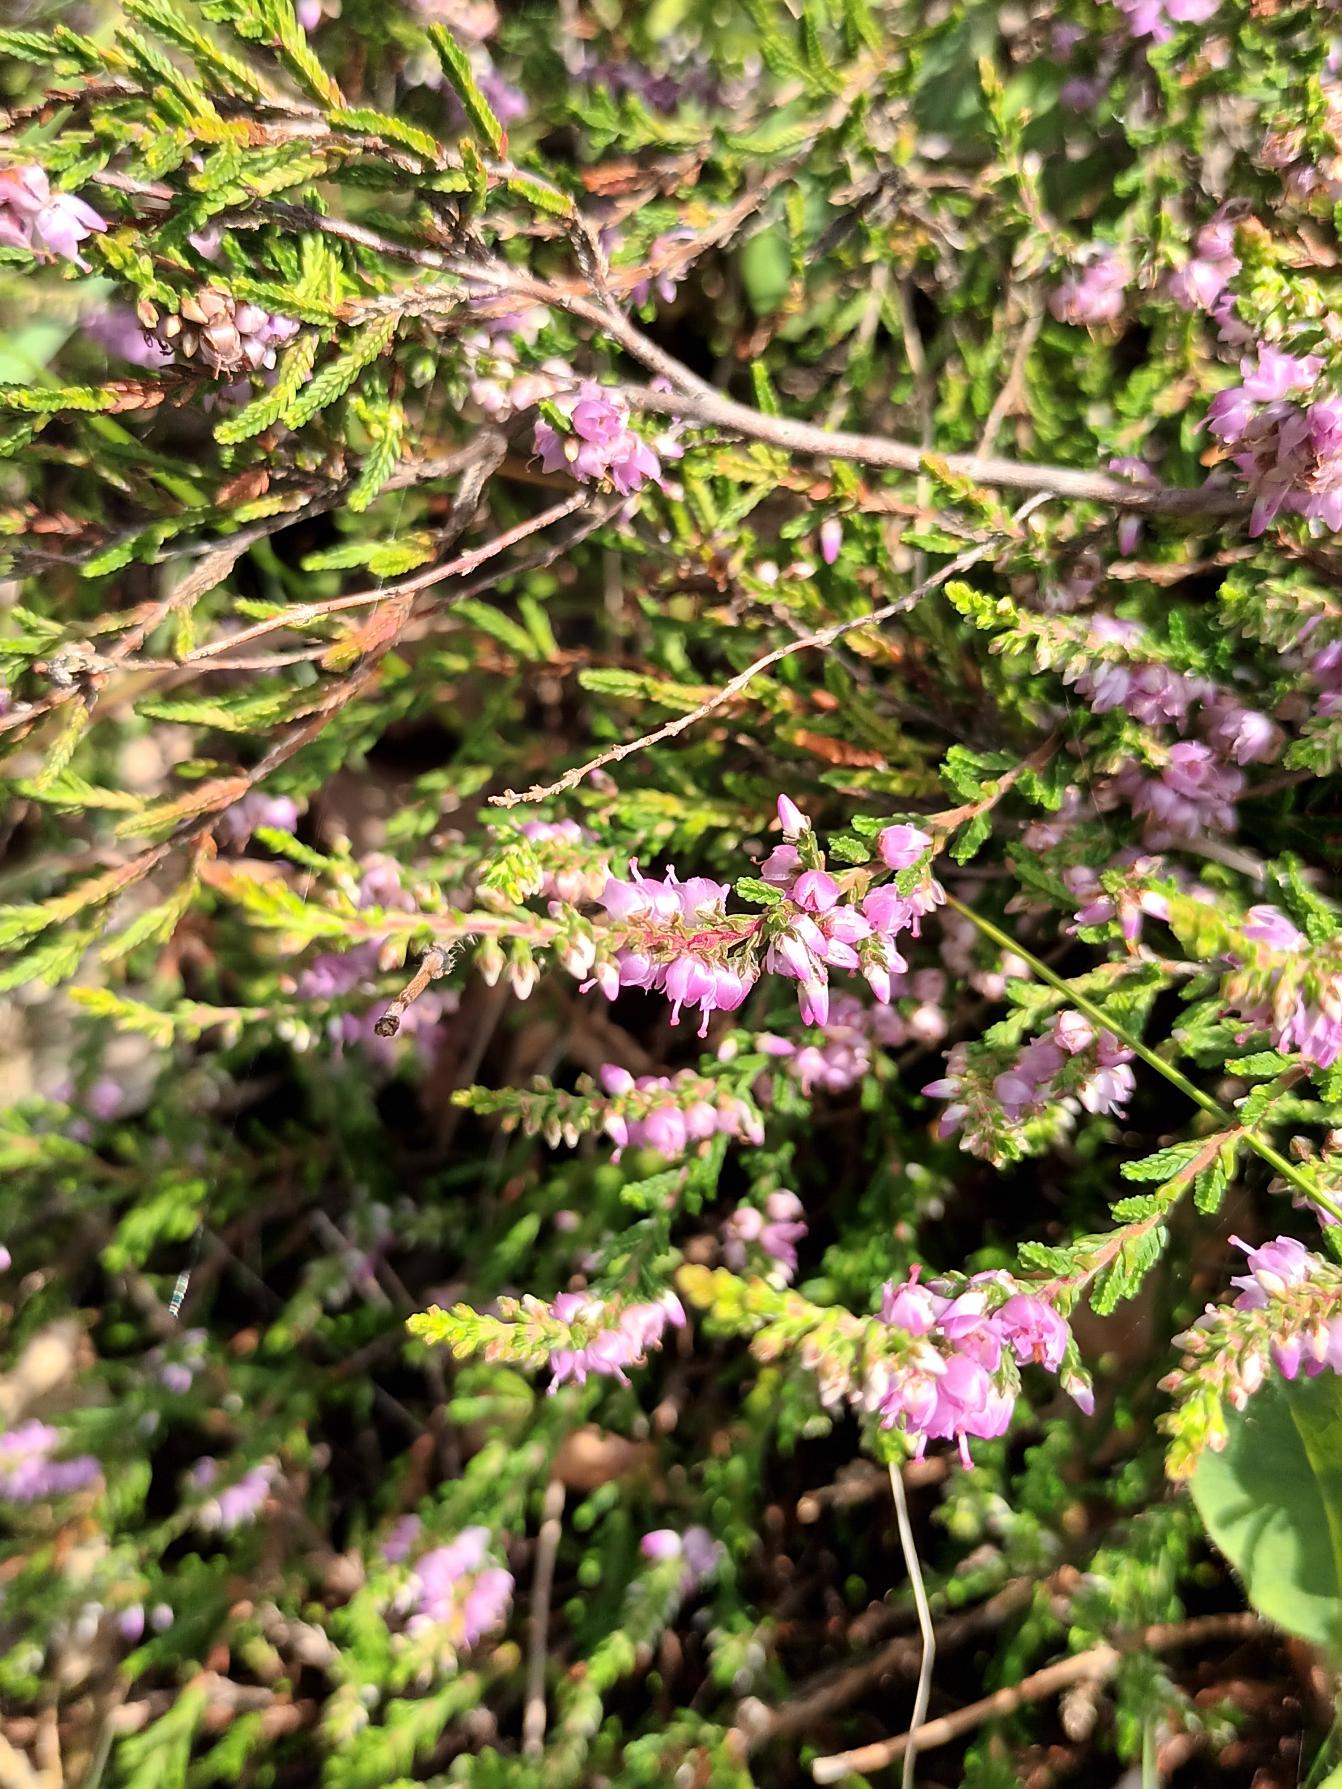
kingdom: Plantae
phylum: Tracheophyta
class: Magnoliopsida
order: Ericales
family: Ericaceae
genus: Calluna
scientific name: Calluna vulgaris
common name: Hedelyng
